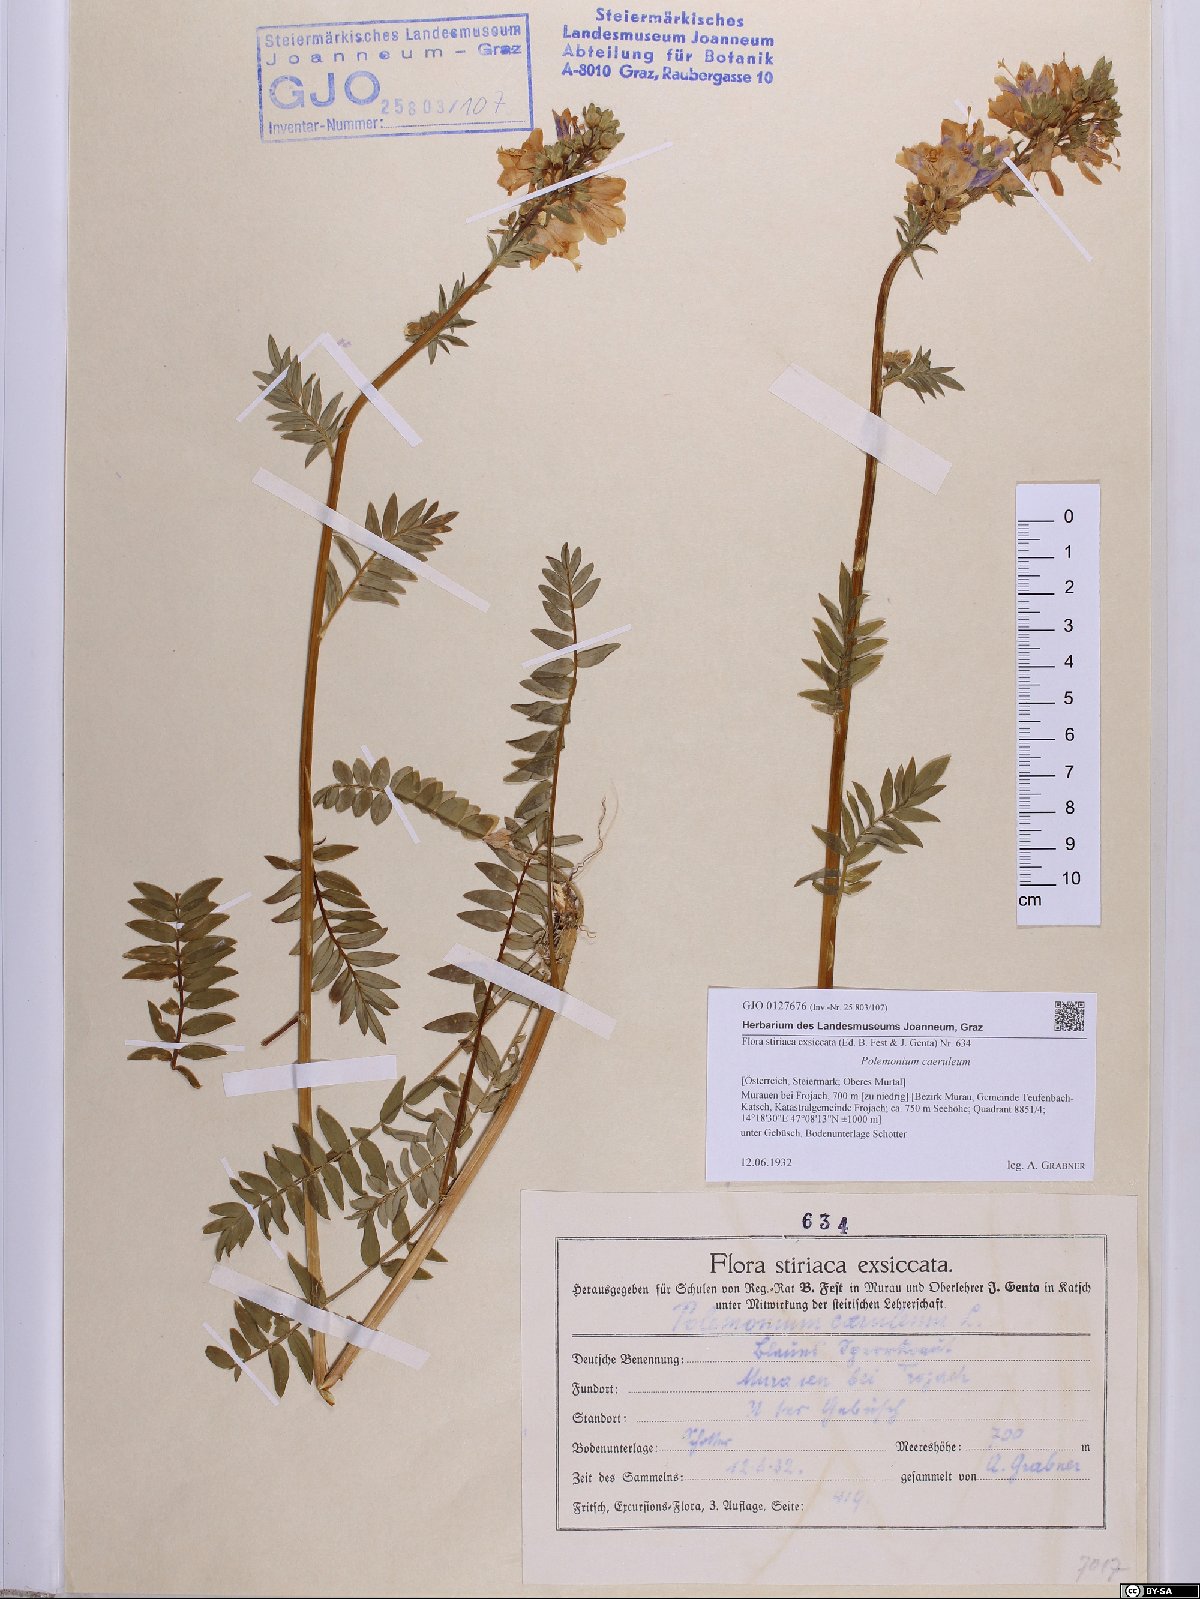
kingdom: Plantae
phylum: Tracheophyta
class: Magnoliopsida
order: Ericales
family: Polemoniaceae
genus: Polemonium
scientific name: Polemonium caeruleum
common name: Jacob's-ladder
